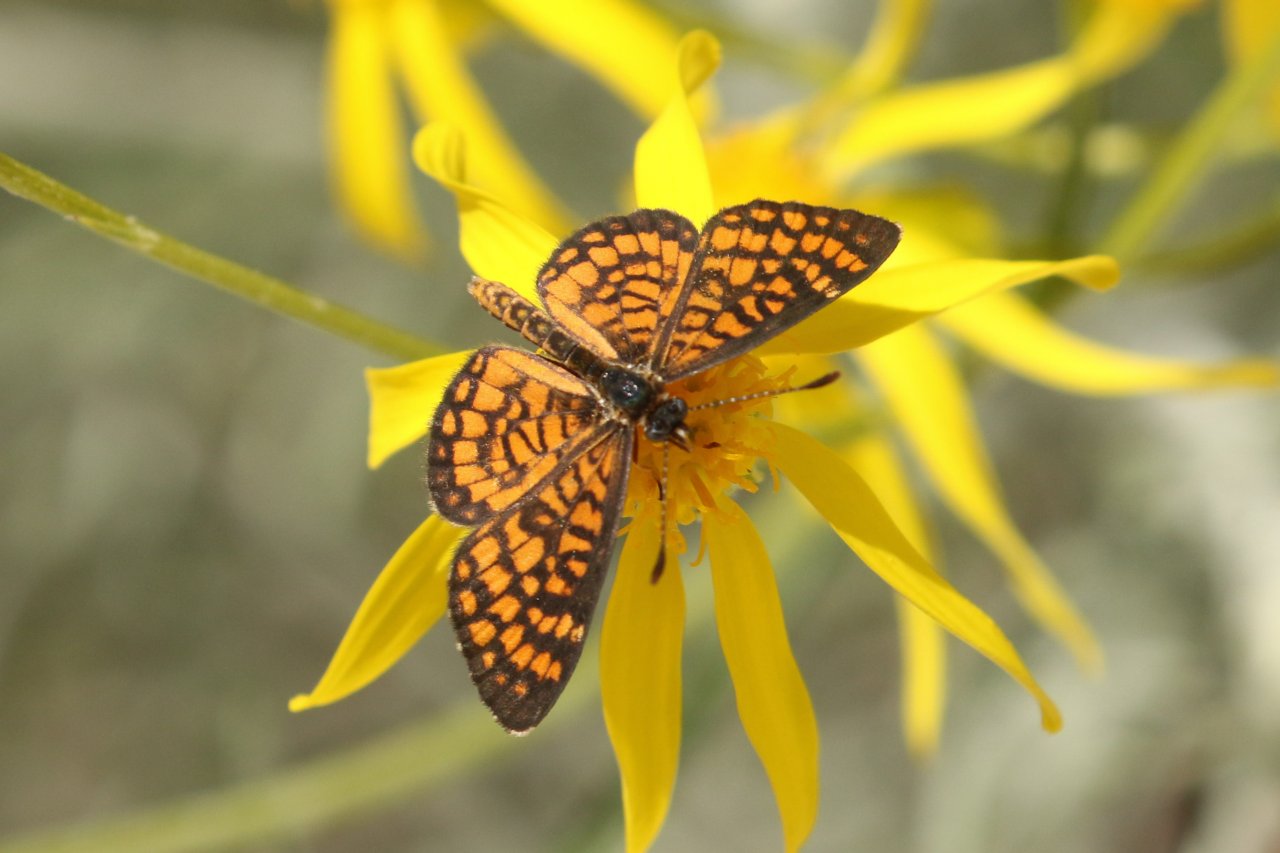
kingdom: Animalia
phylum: Arthropoda
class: Insecta
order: Lepidoptera
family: Nymphalidae
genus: Dymasia
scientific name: Dymasia dymas
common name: Tiny Checkerspot
